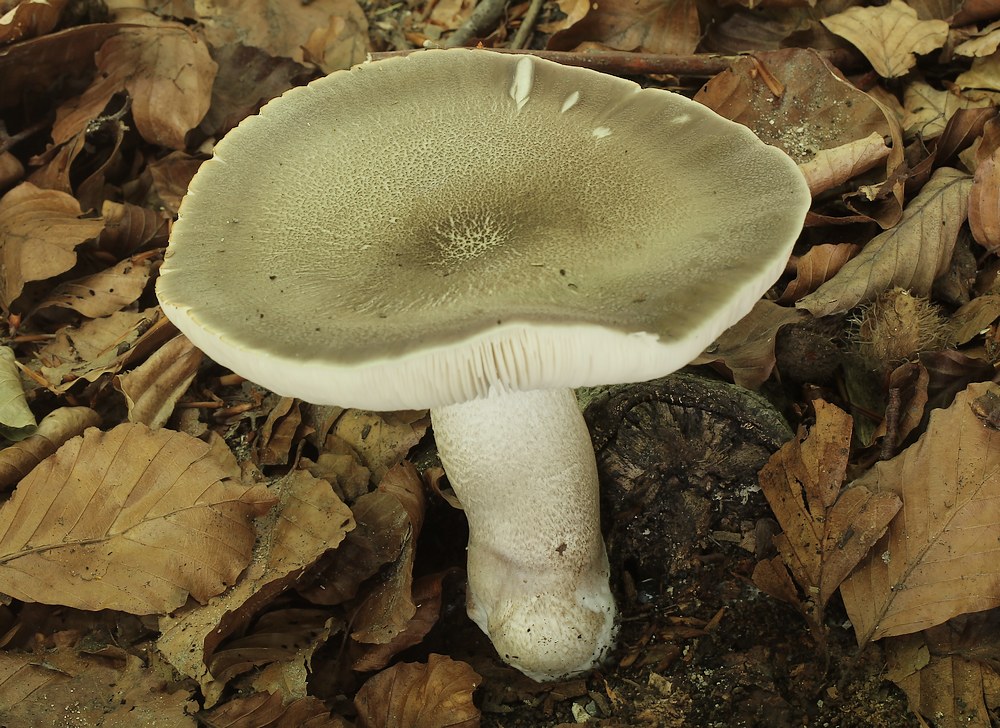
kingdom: Fungi
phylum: Basidiomycota
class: Agaricomycetes
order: Agaricales
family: Pluteaceae
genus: Pluteus
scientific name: Pluteus
